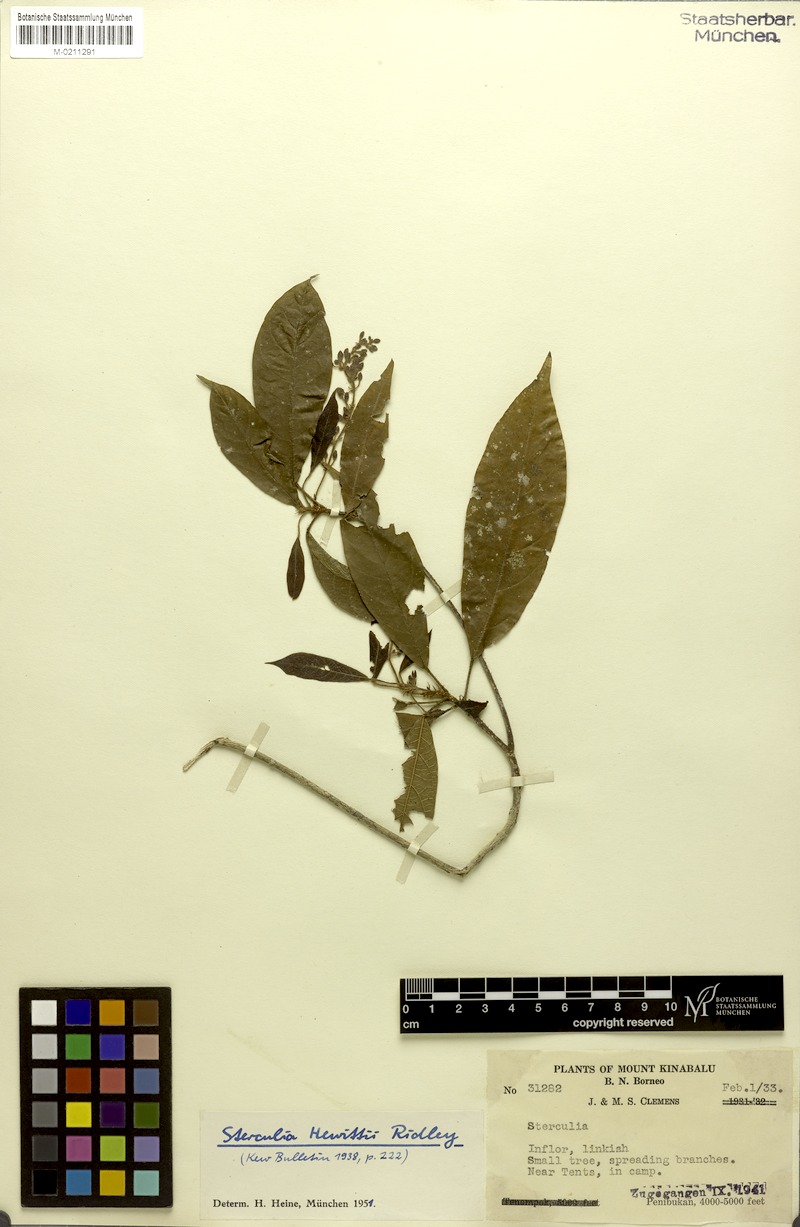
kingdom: Plantae
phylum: Tracheophyta
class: Magnoliopsida
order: Malvales
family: Malvaceae
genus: Sterculia
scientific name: Sterculia hewittii
